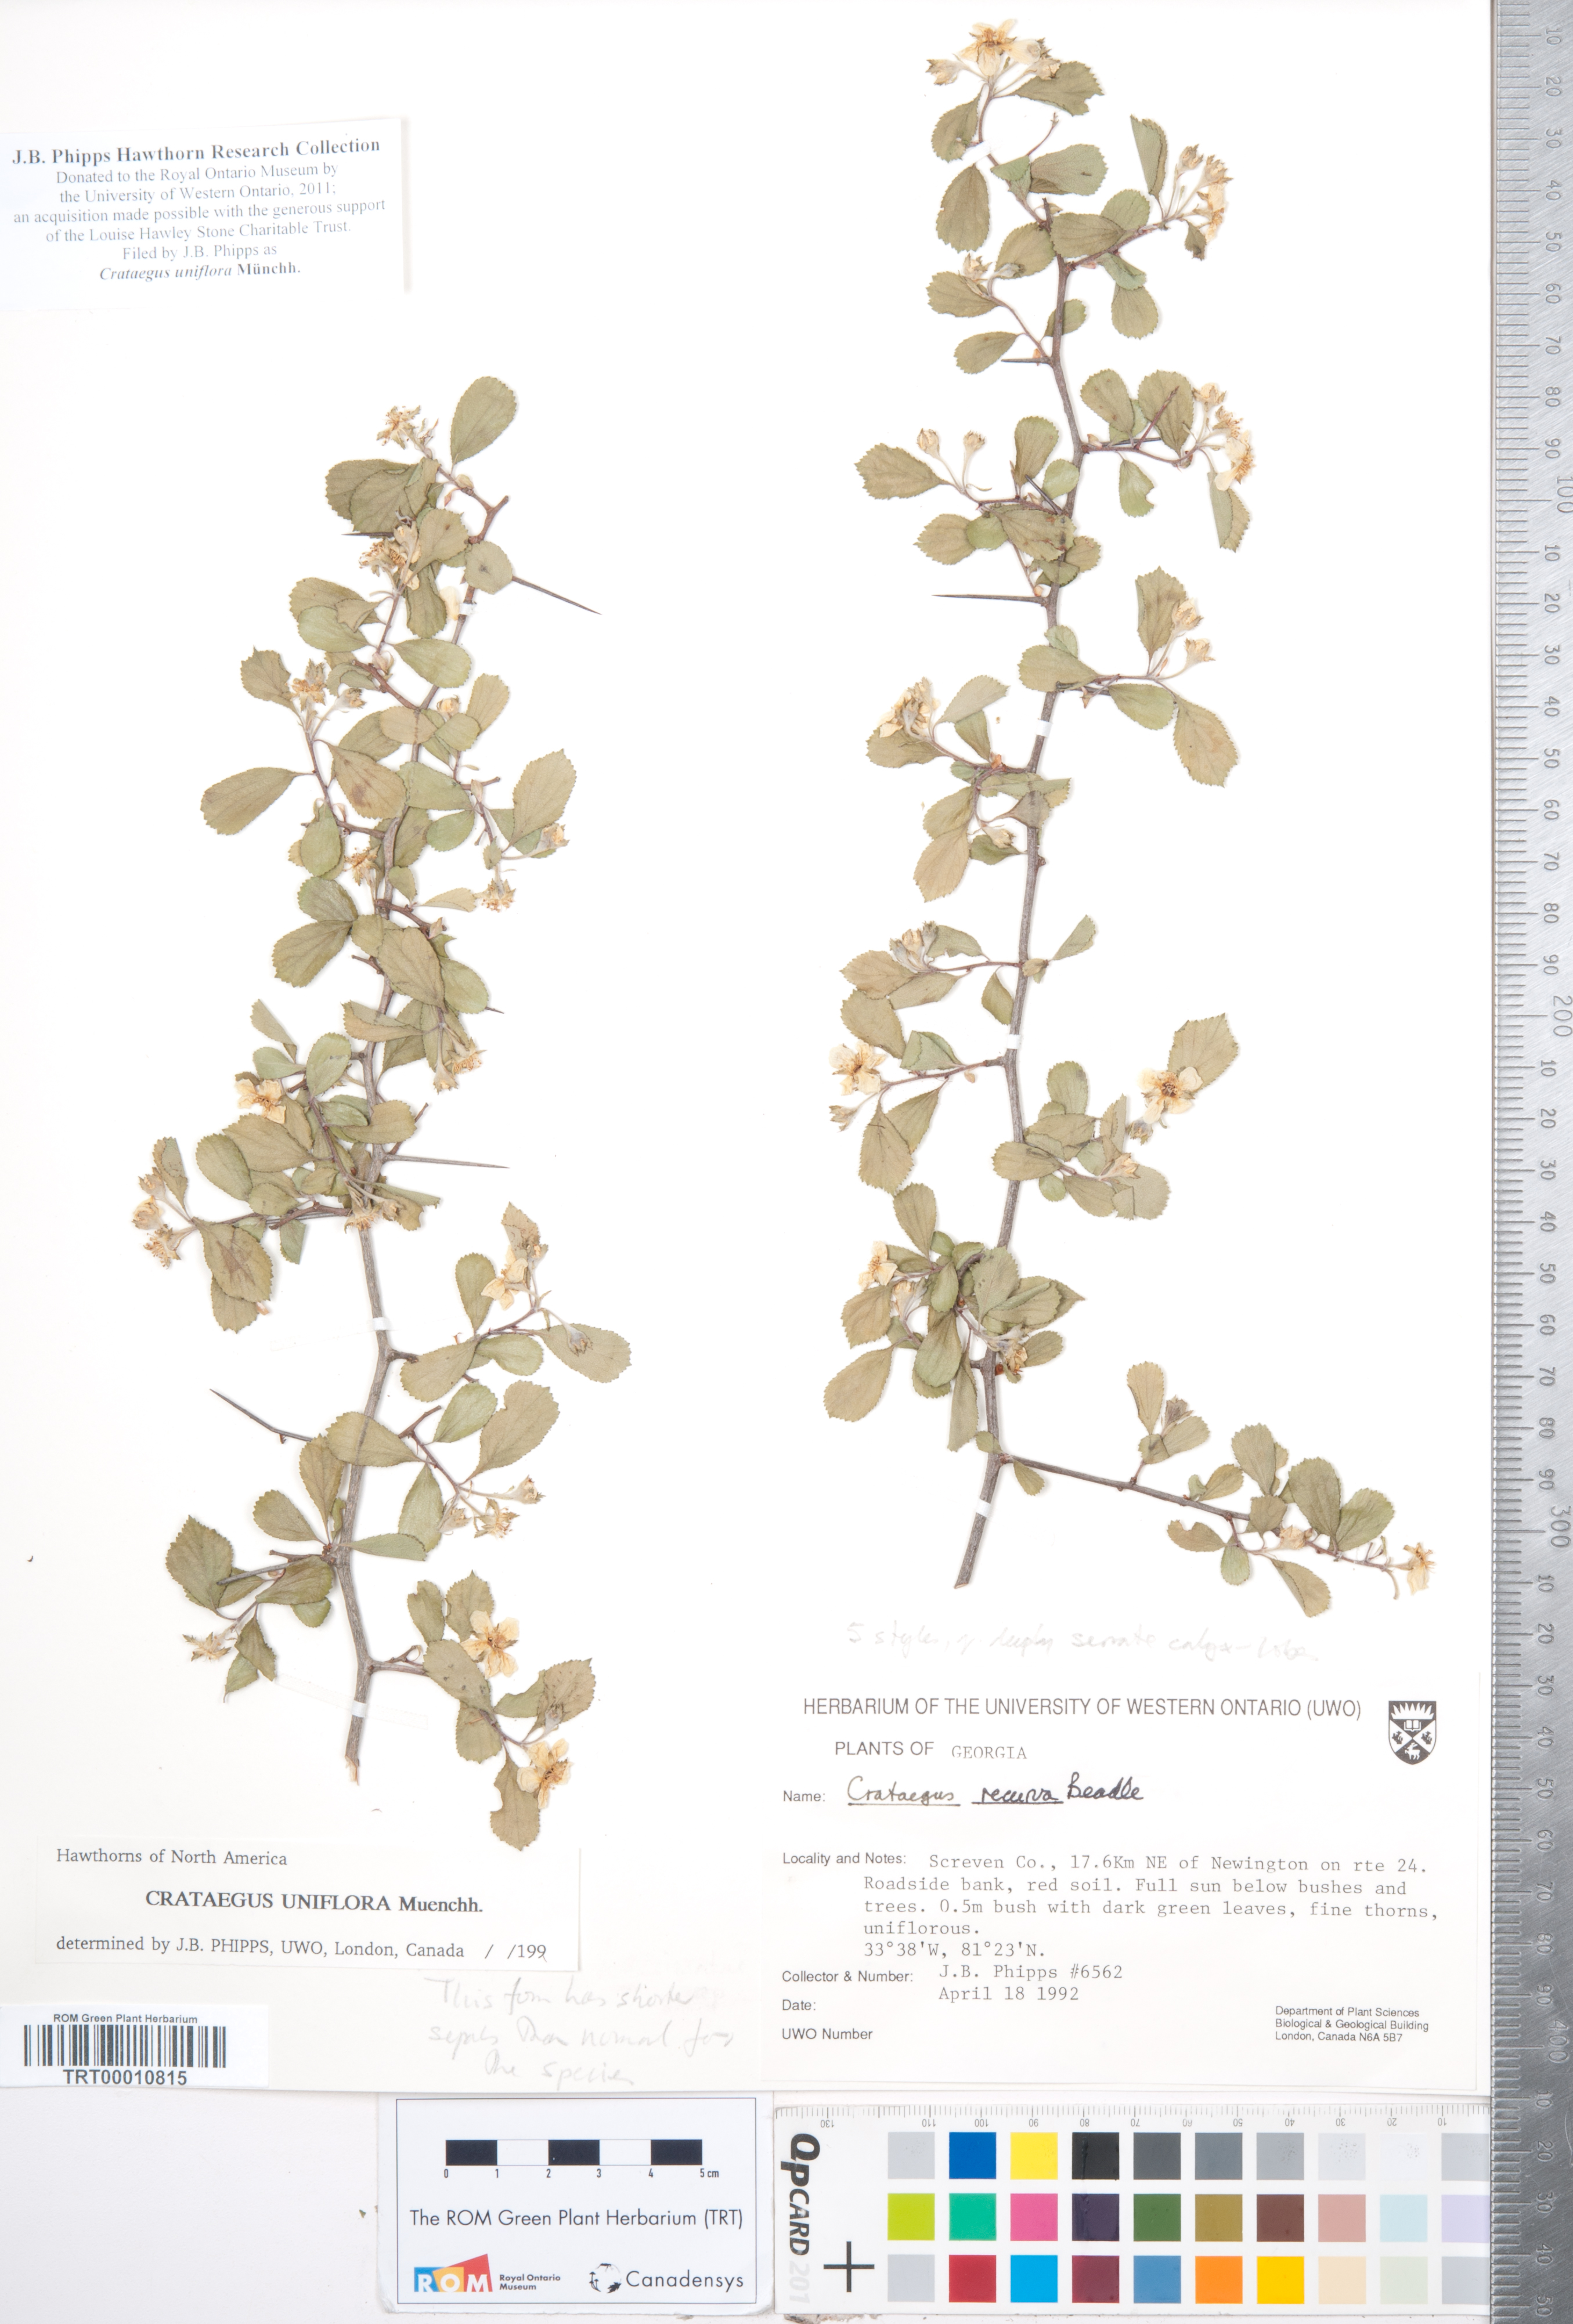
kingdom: Plantae
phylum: Tracheophyta
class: Magnoliopsida
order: Rosales
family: Rosaceae
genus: Crataegus
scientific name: Crataegus uniflora
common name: One-flower hawthorn
